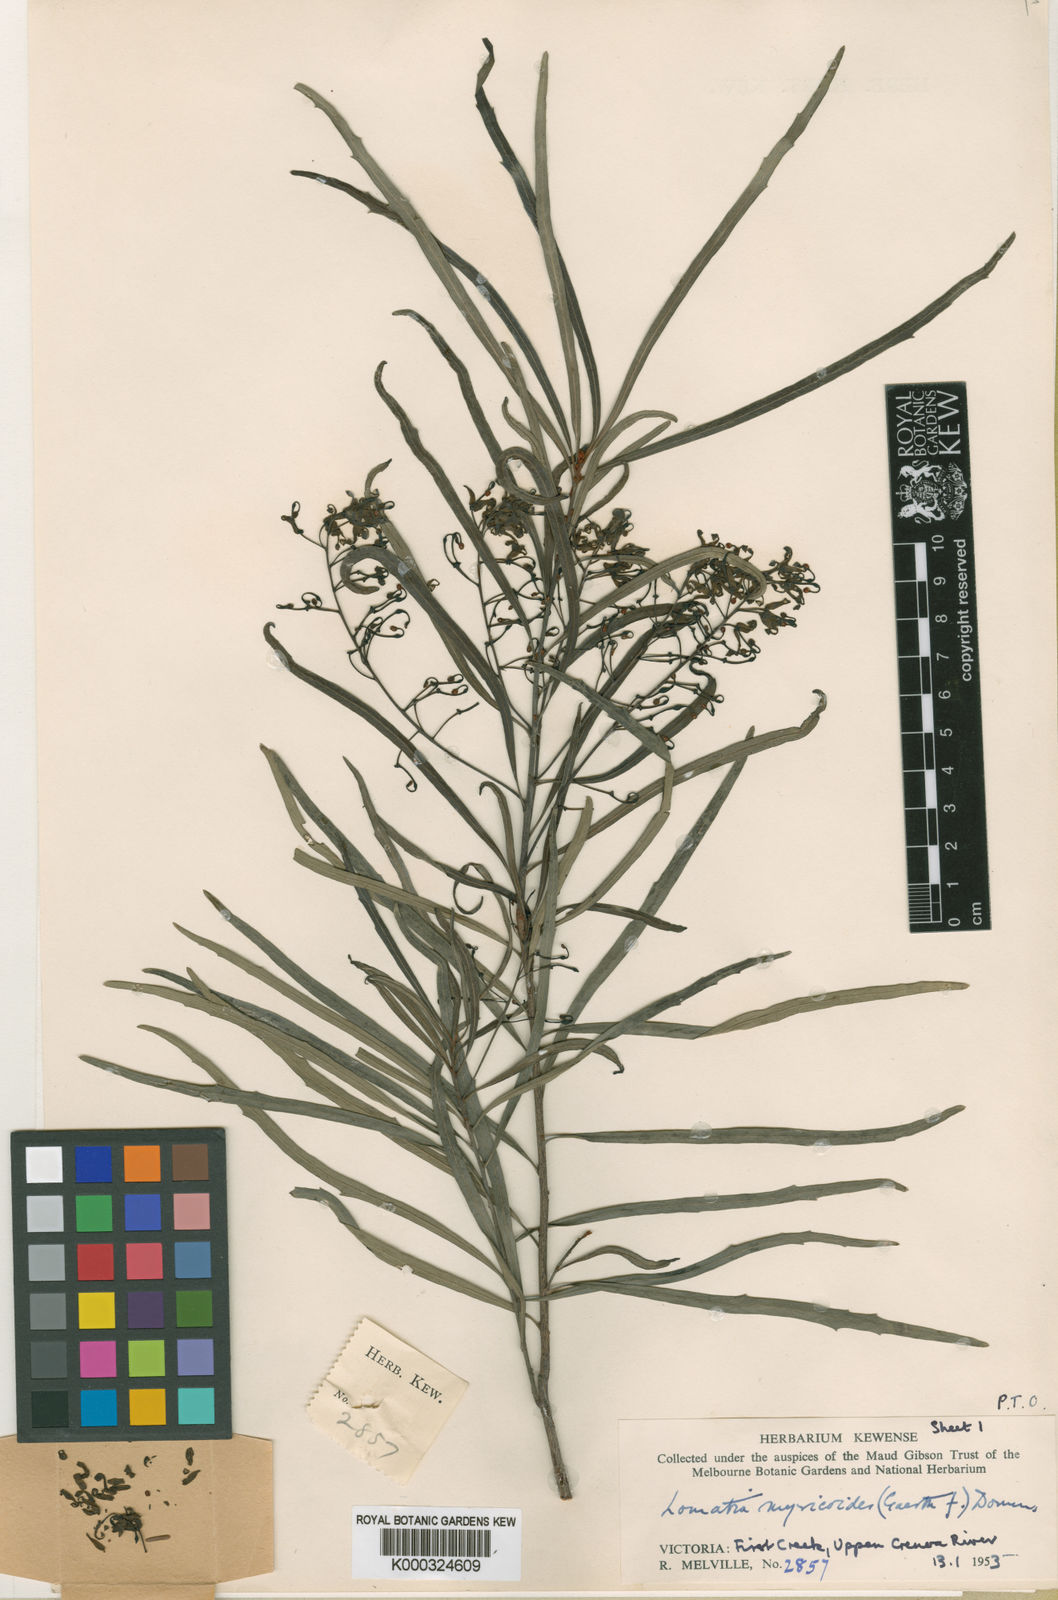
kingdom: Plantae
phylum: Tracheophyta
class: Magnoliopsida
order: Proteales
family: Proteaceae
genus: Lomatia
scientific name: Lomatia myricoides
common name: Longleaf lomatia
